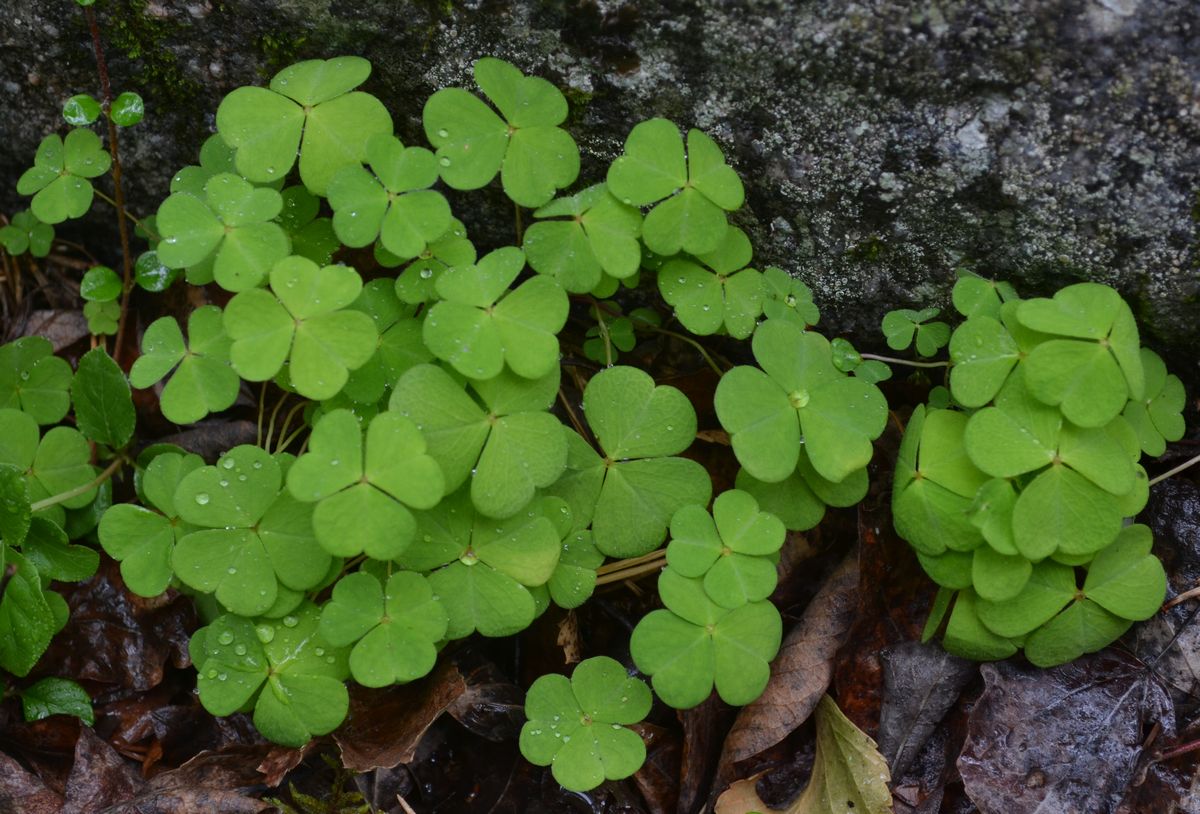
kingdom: Plantae
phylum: Tracheophyta
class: Magnoliopsida
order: Oxalidales
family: Oxalidaceae
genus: Oxalis
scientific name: Oxalis acetosella
